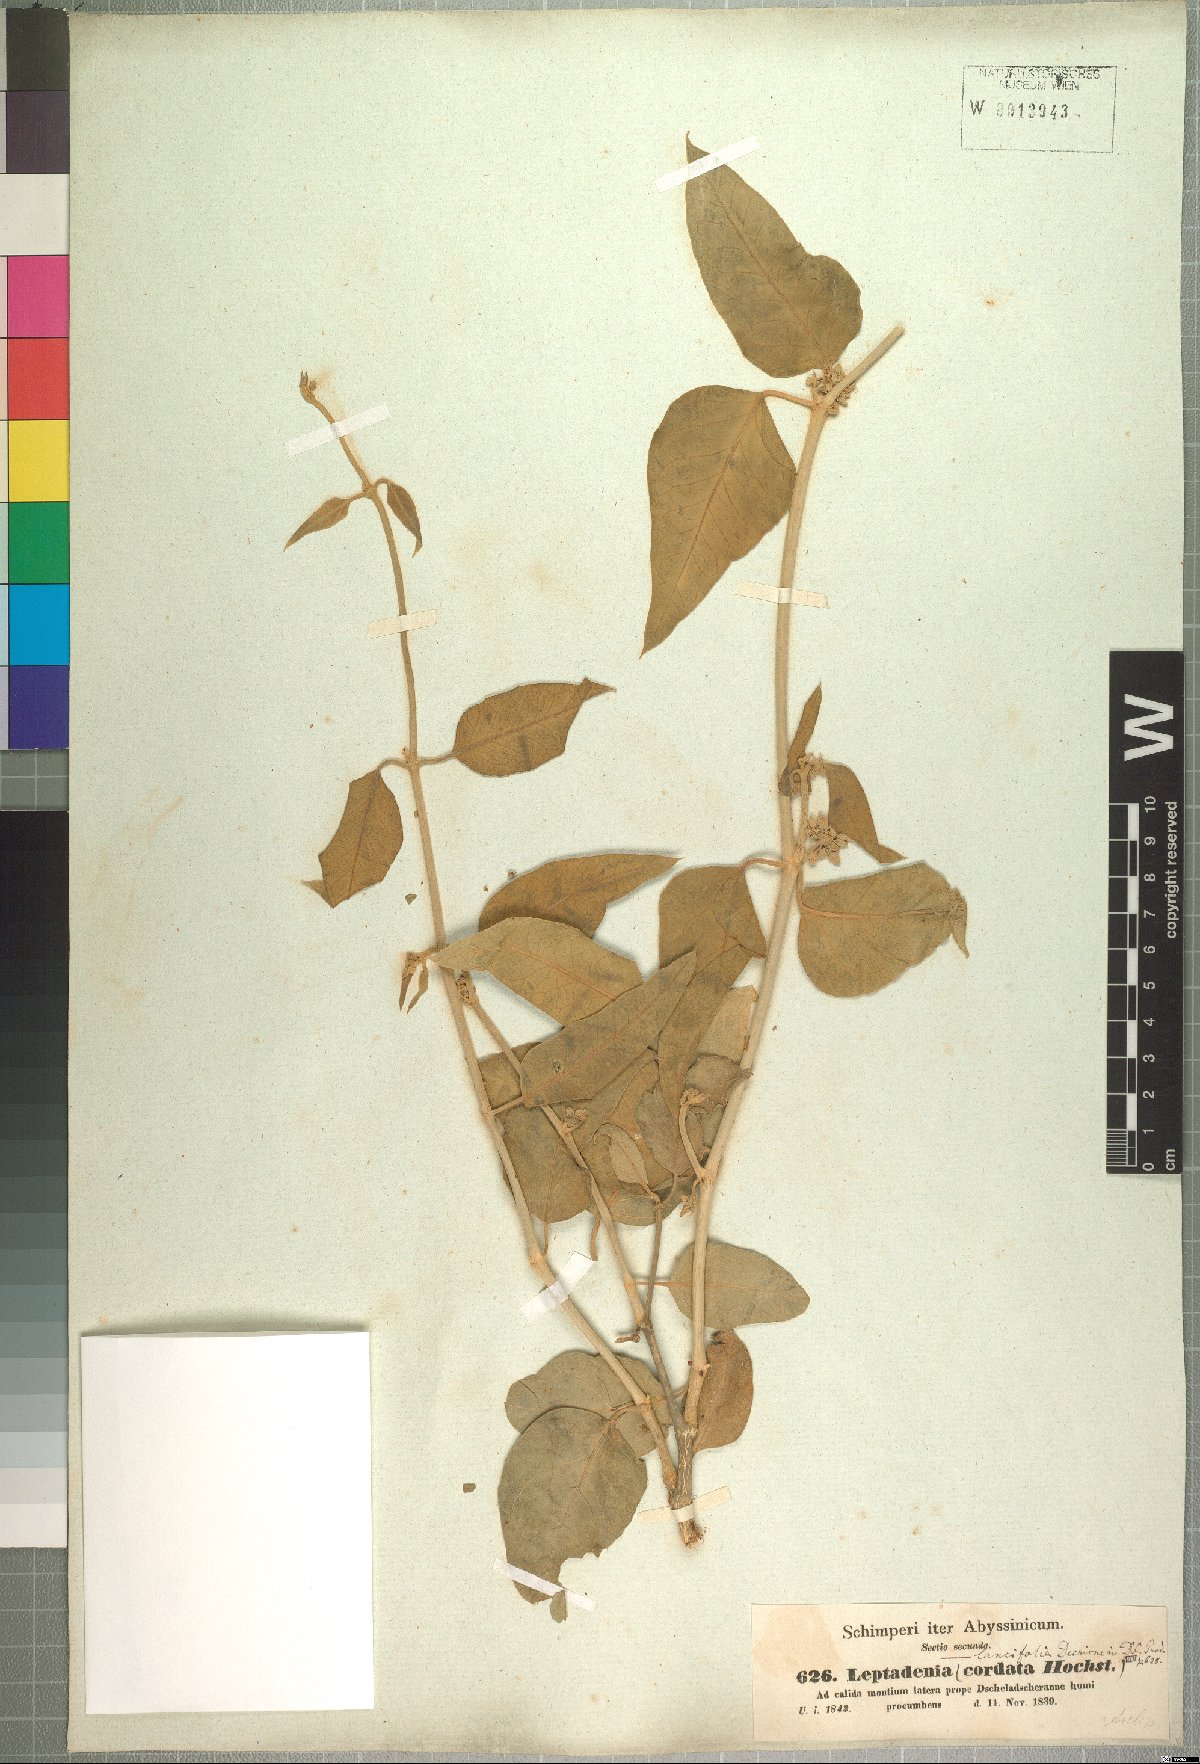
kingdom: Plantae
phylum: Tracheophyta
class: Magnoliopsida
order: Gentianales
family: Apocynaceae
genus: Leptadenia
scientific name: Leptadenia lanceolata
